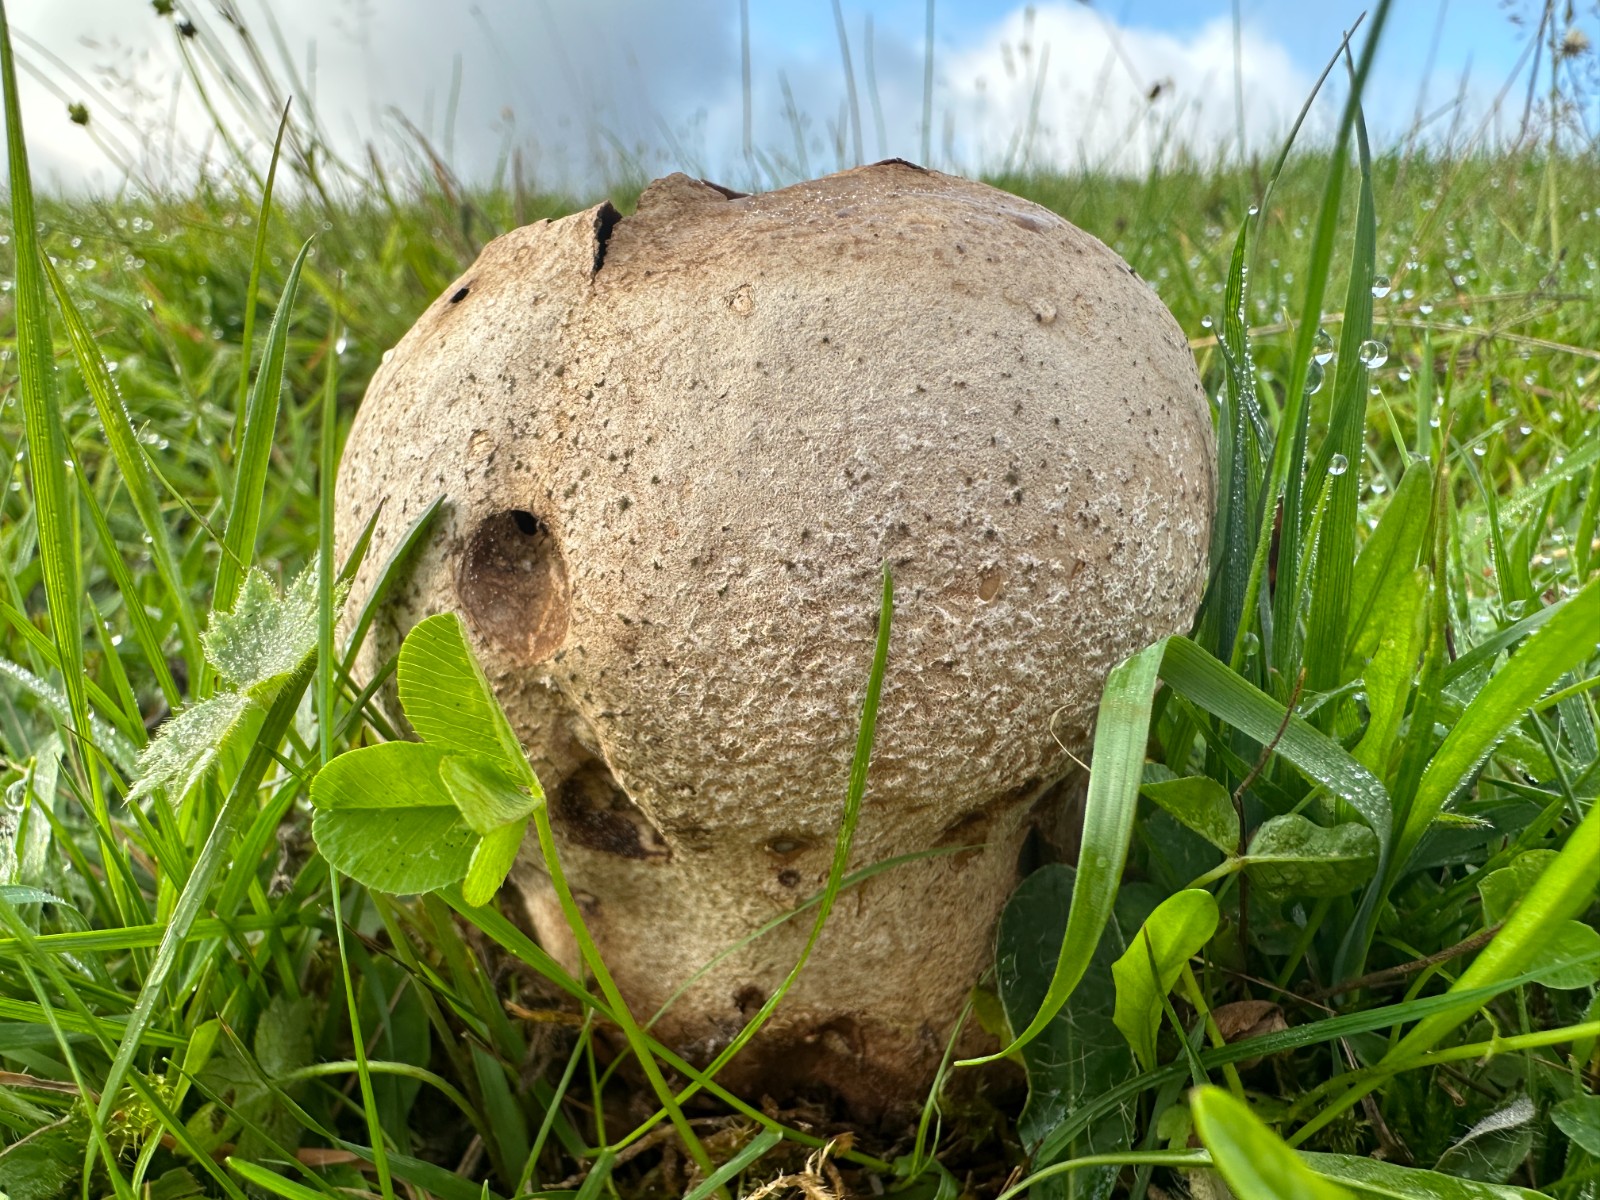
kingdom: Fungi
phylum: Basidiomycota
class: Agaricomycetes
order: Agaricales
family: Lycoperdaceae
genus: Bovistella
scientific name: Bovistella utriformis
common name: skællet støvbold
